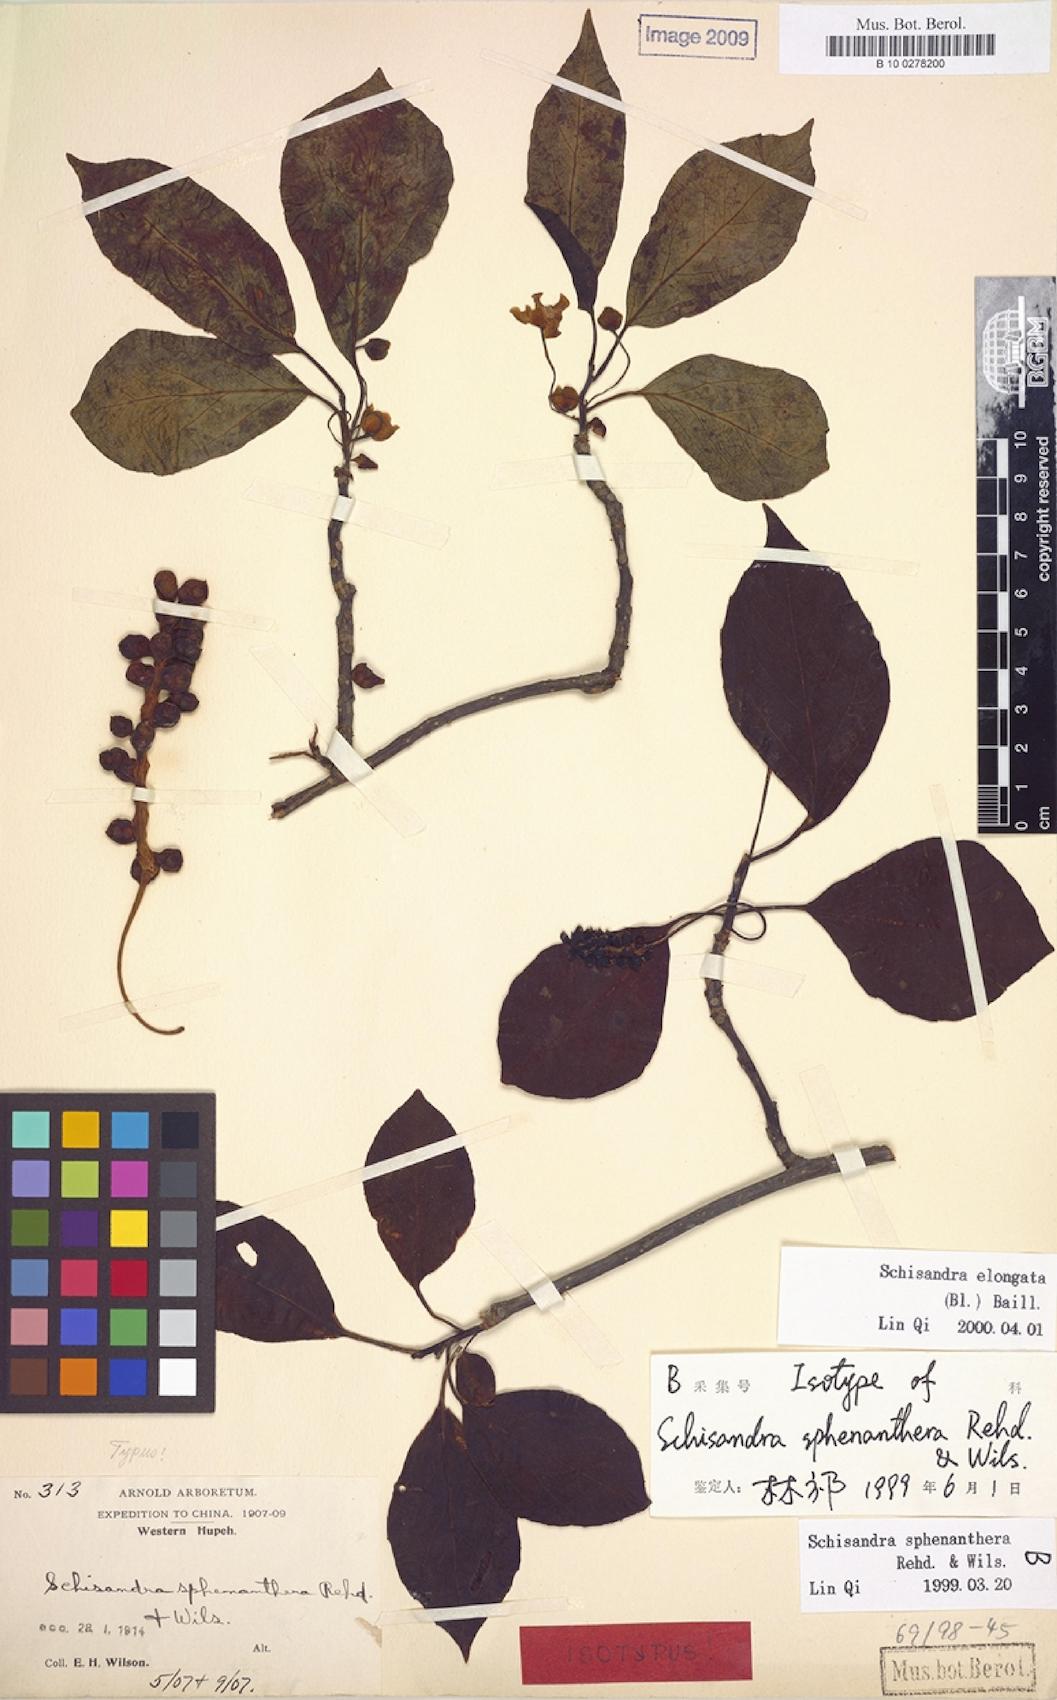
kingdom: Plantae
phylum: Tracheophyta
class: Magnoliopsida
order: Austrobaileyales
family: Schisandraceae
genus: Schisandra
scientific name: Schisandra neglecta
